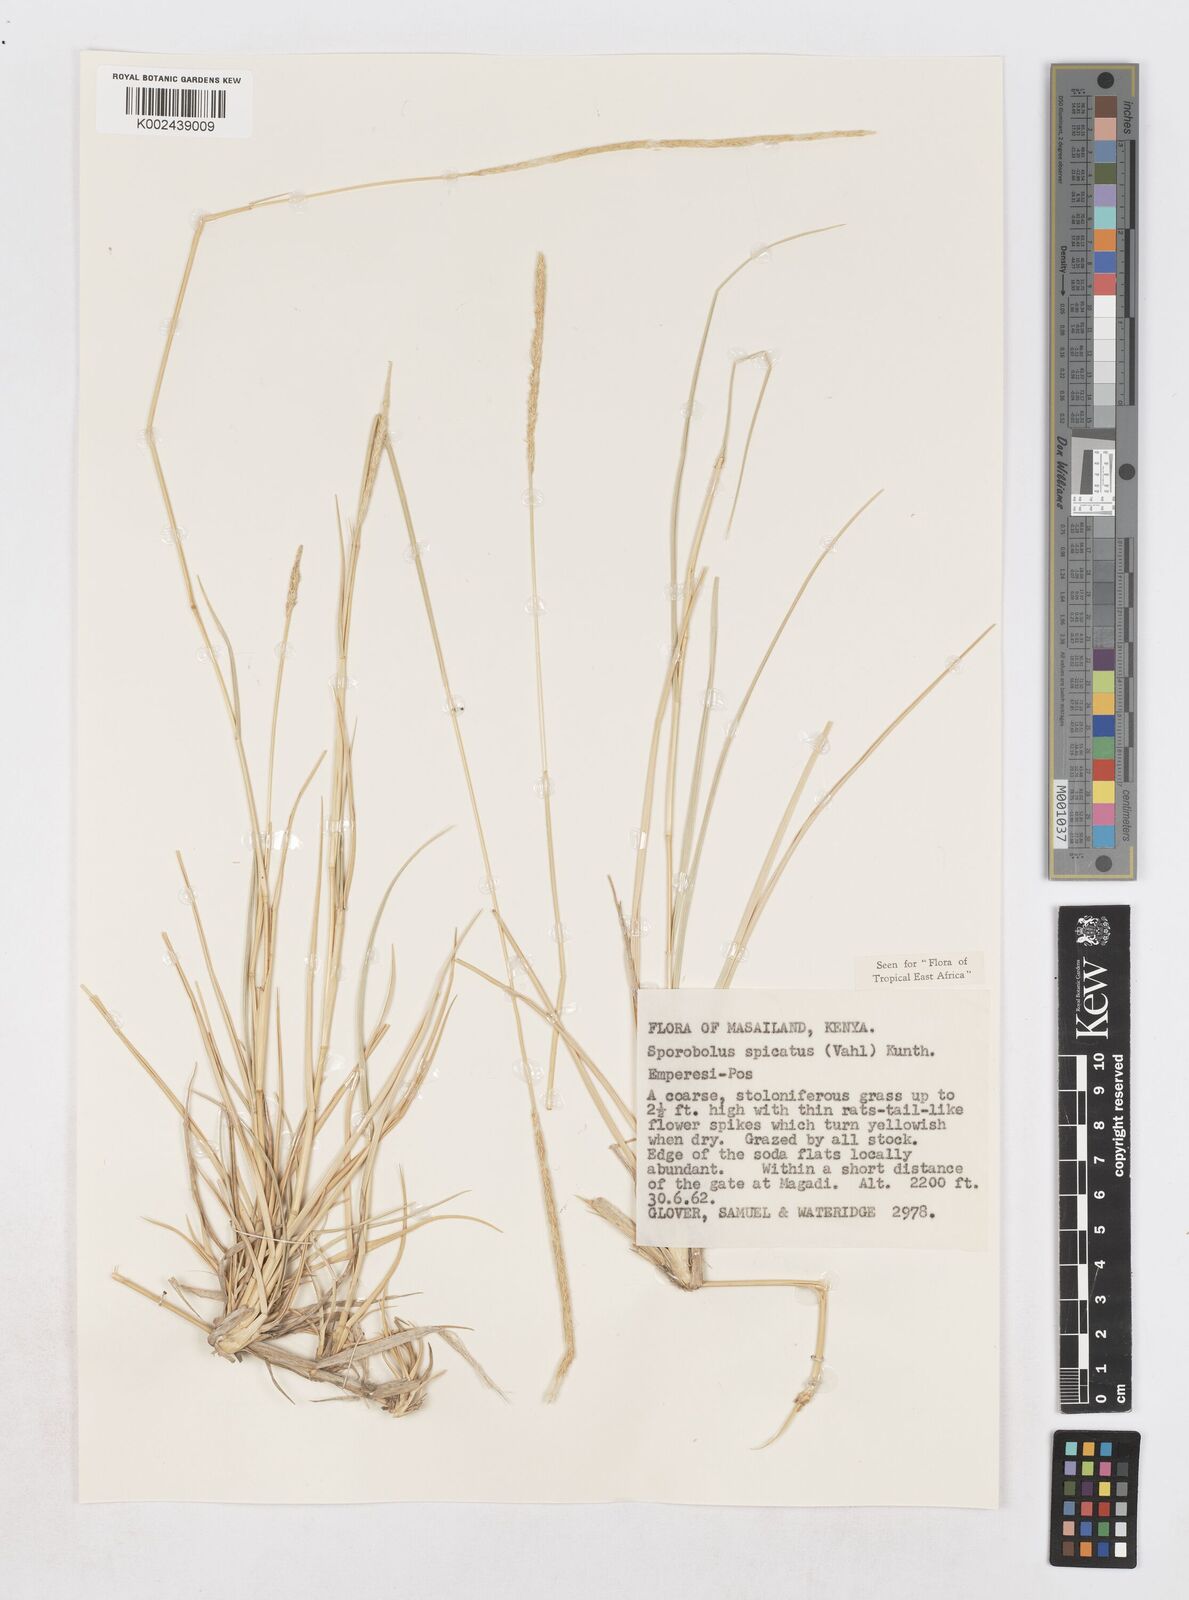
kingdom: Plantae
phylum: Tracheophyta
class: Liliopsida
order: Poales
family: Poaceae
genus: Sporobolus
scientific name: Sporobolus spicatus
